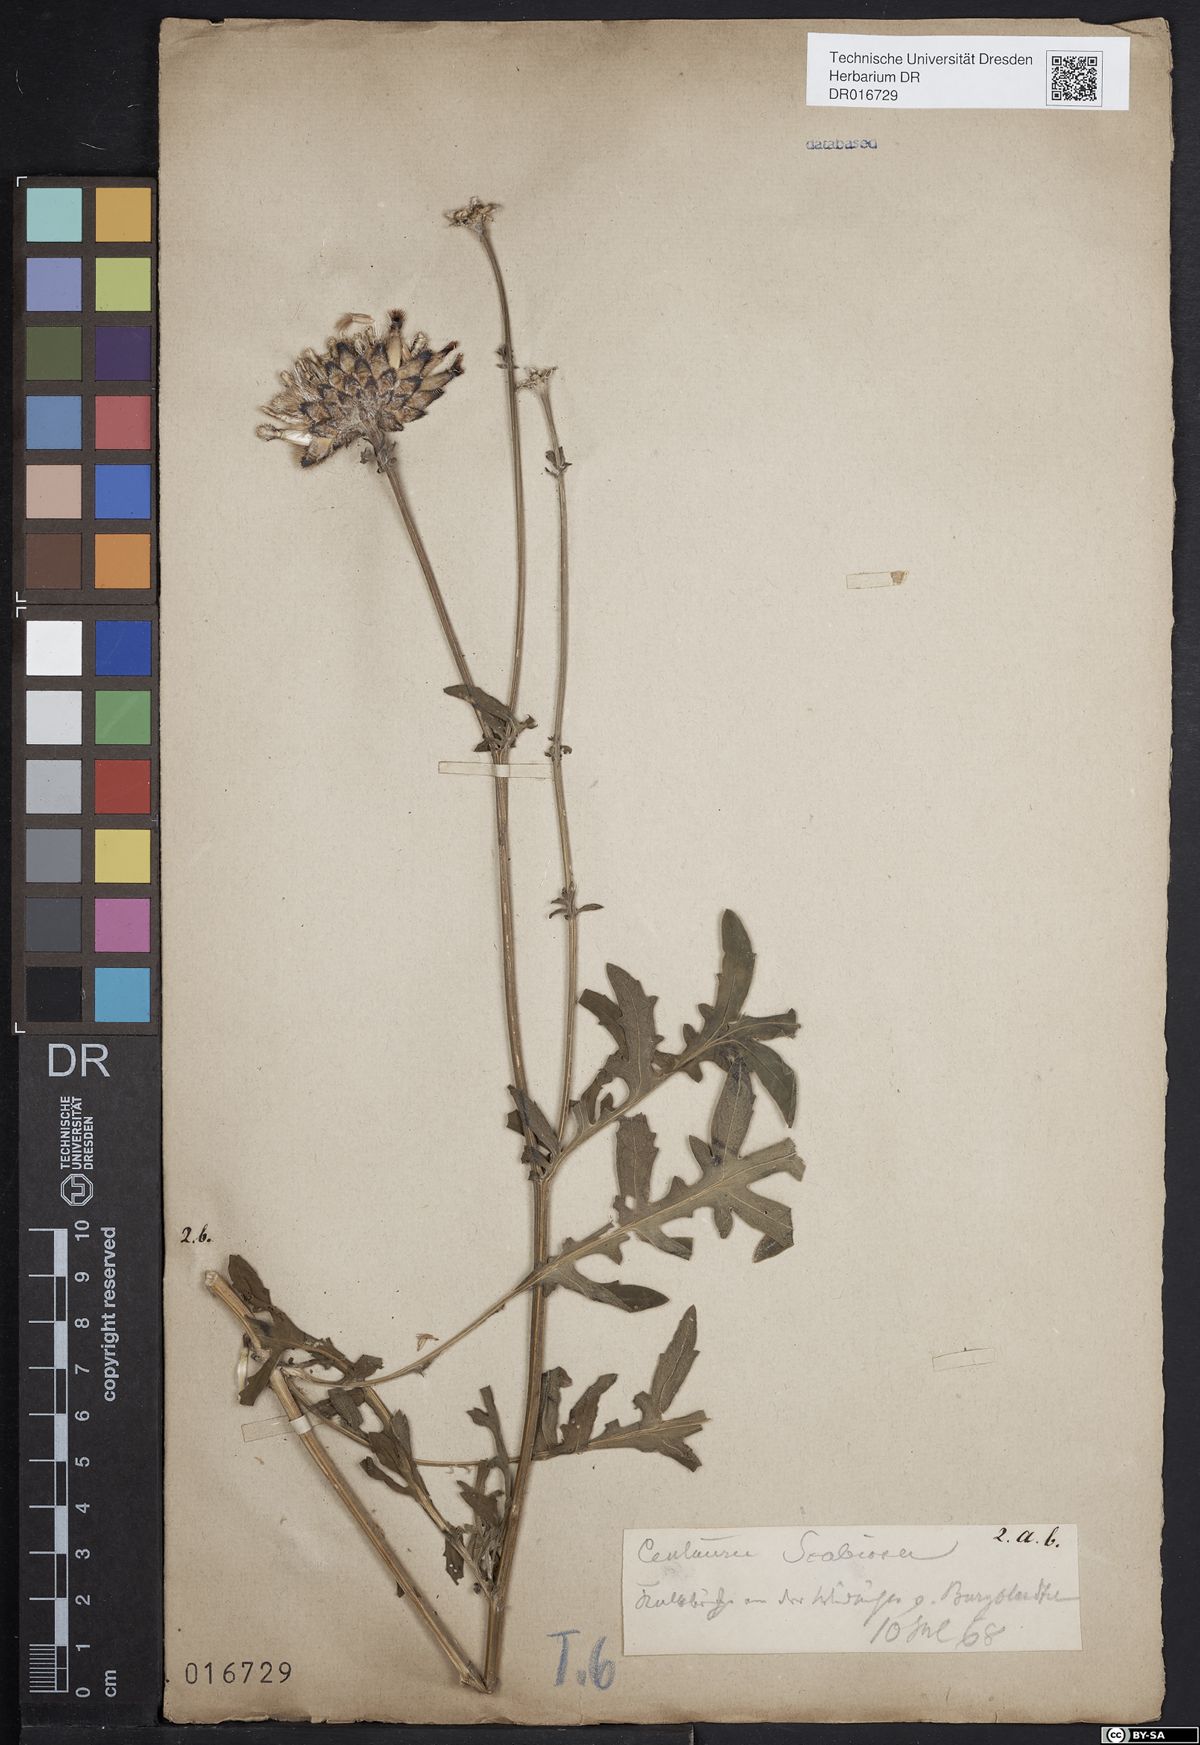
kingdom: Plantae
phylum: Tracheophyta
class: Magnoliopsida
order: Asterales
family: Asteraceae
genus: Centaurea
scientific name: Centaurea scabiosa
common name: Greater knapweed
